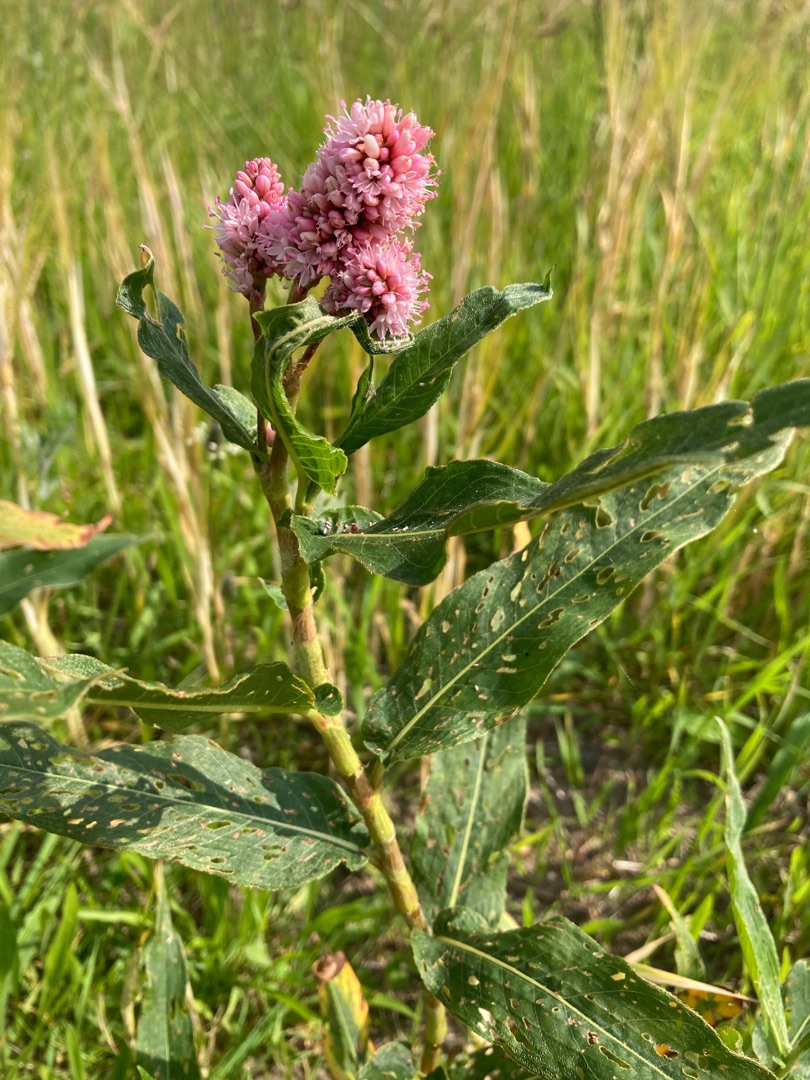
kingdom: Plantae
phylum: Tracheophyta
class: Magnoliopsida
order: Caryophyllales
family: Polygonaceae
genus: Persicaria
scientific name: Persicaria amphibia
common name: Vand-pileurt
